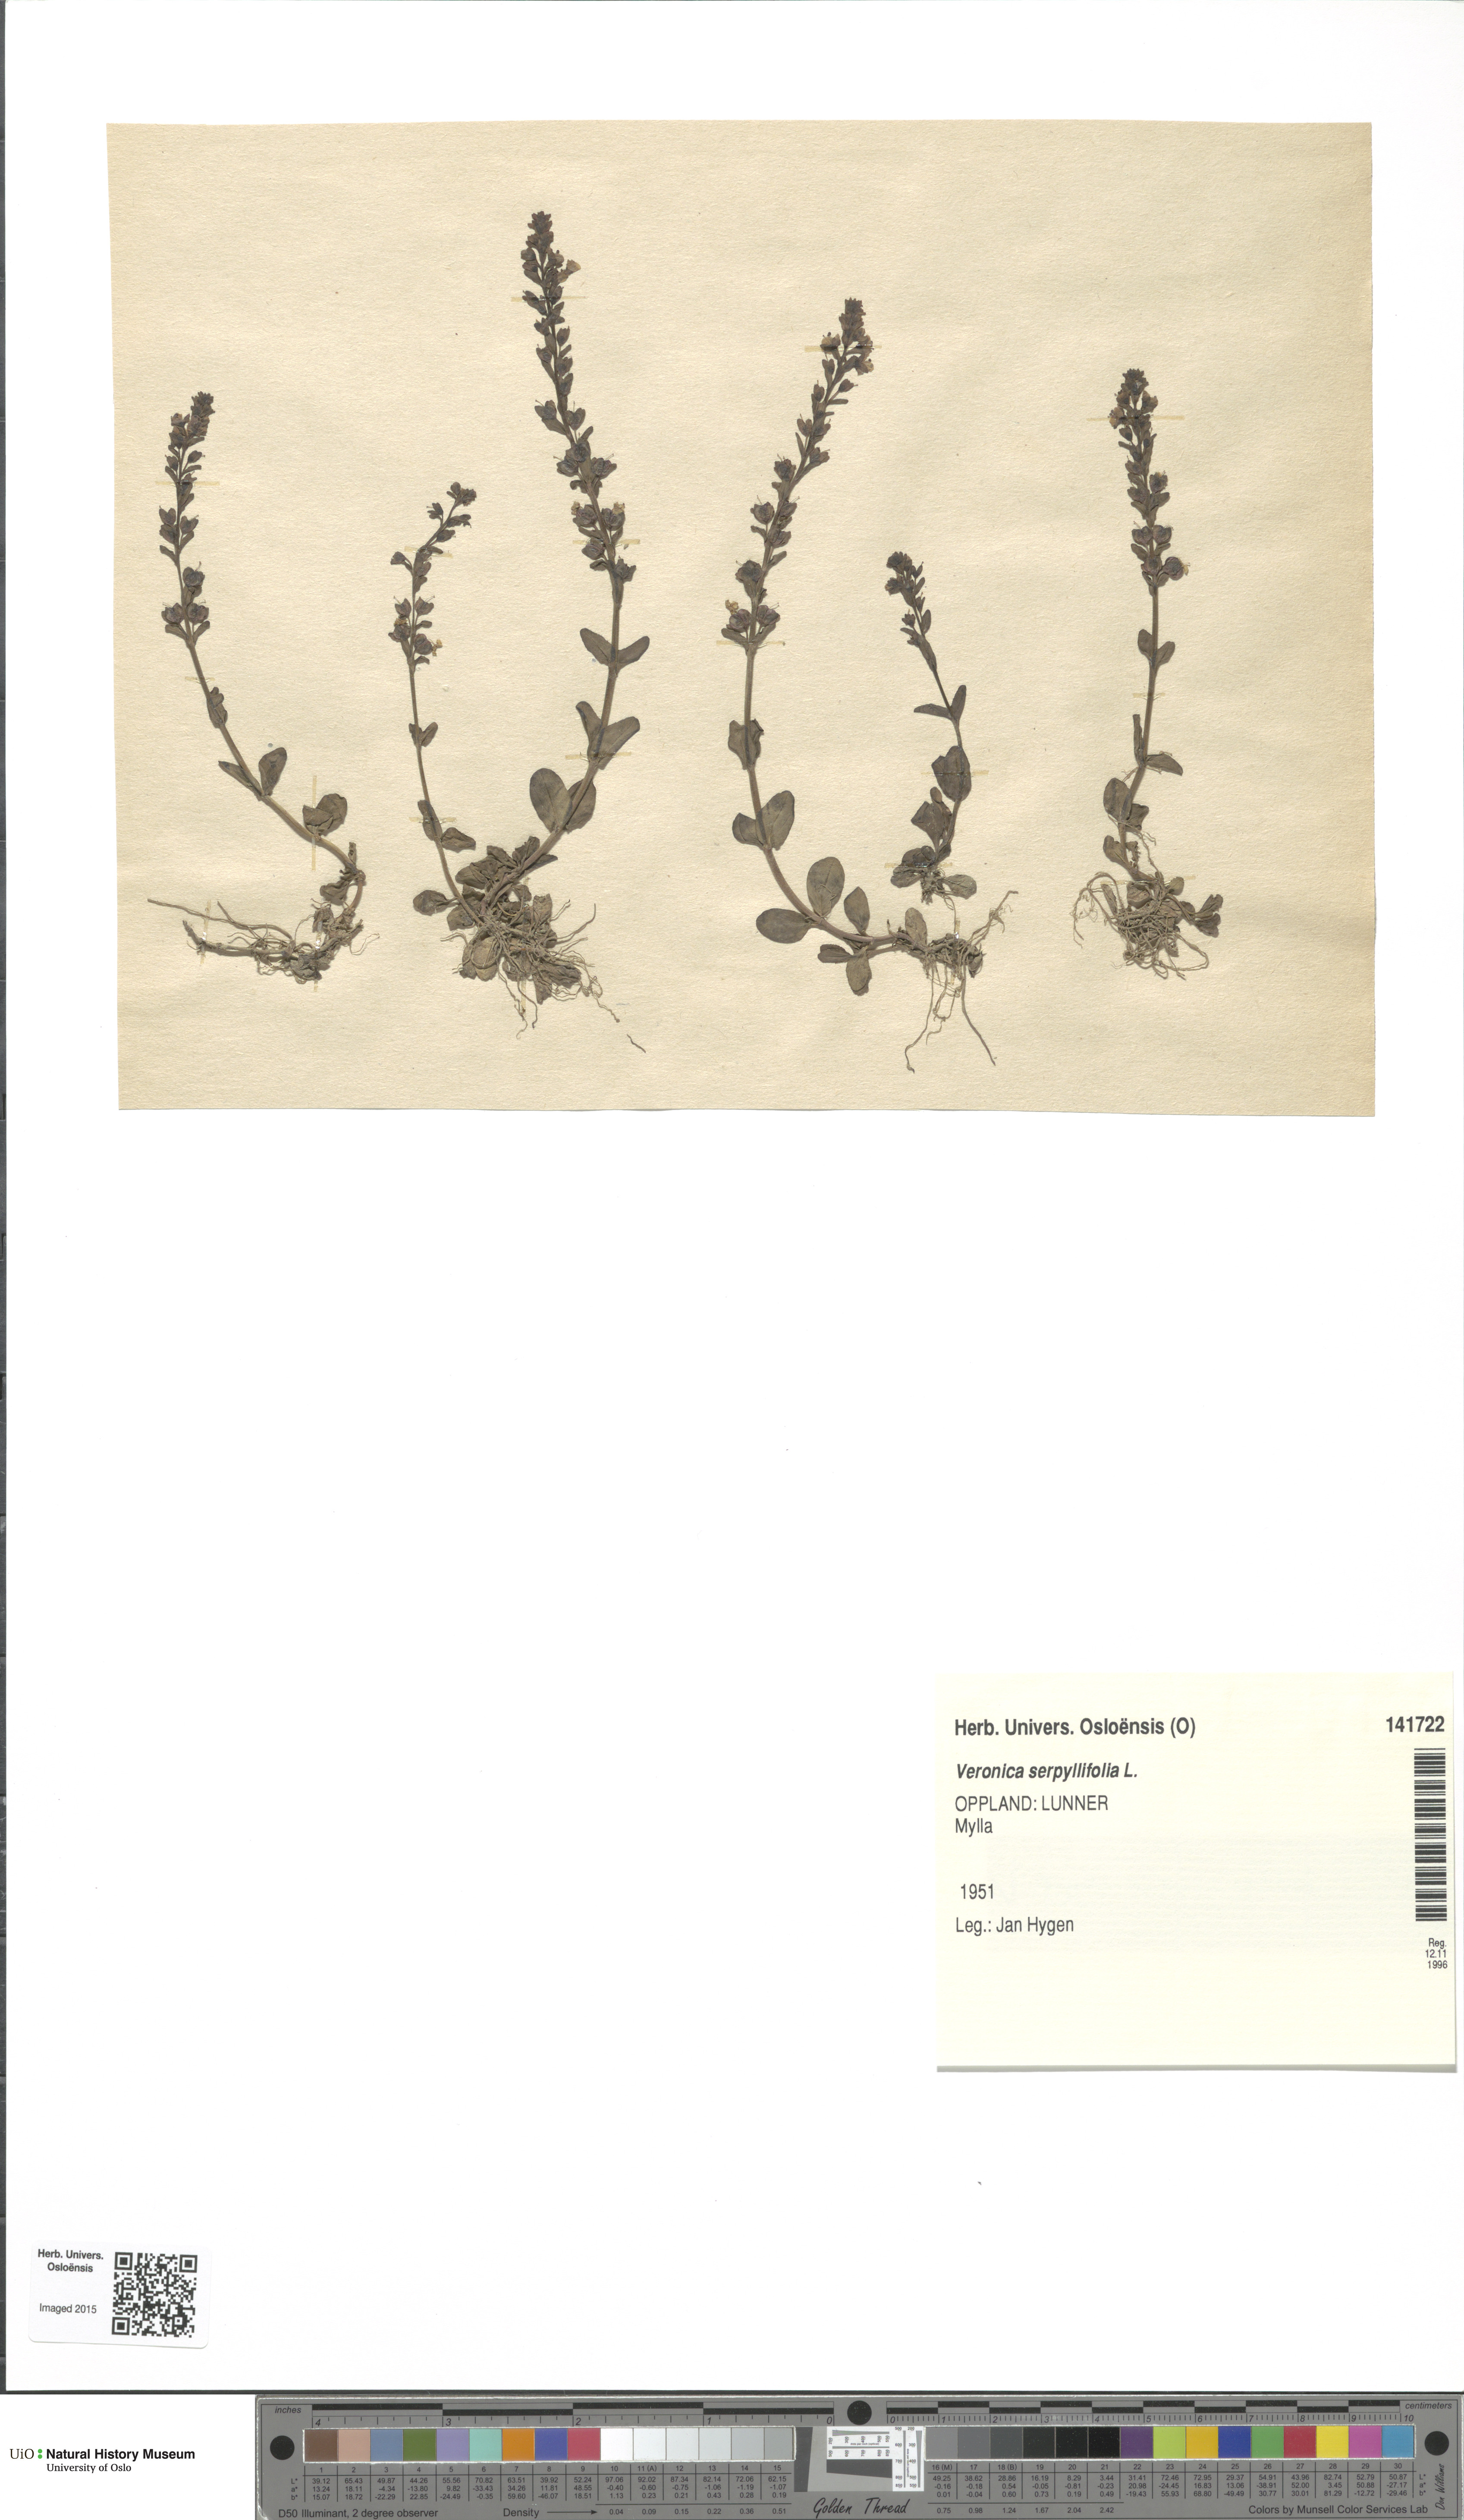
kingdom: Plantae
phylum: Tracheophyta
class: Magnoliopsida
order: Lamiales
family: Plantaginaceae
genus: Veronica
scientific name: Veronica serpyllifolia
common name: Thyme-leaved speedwell
